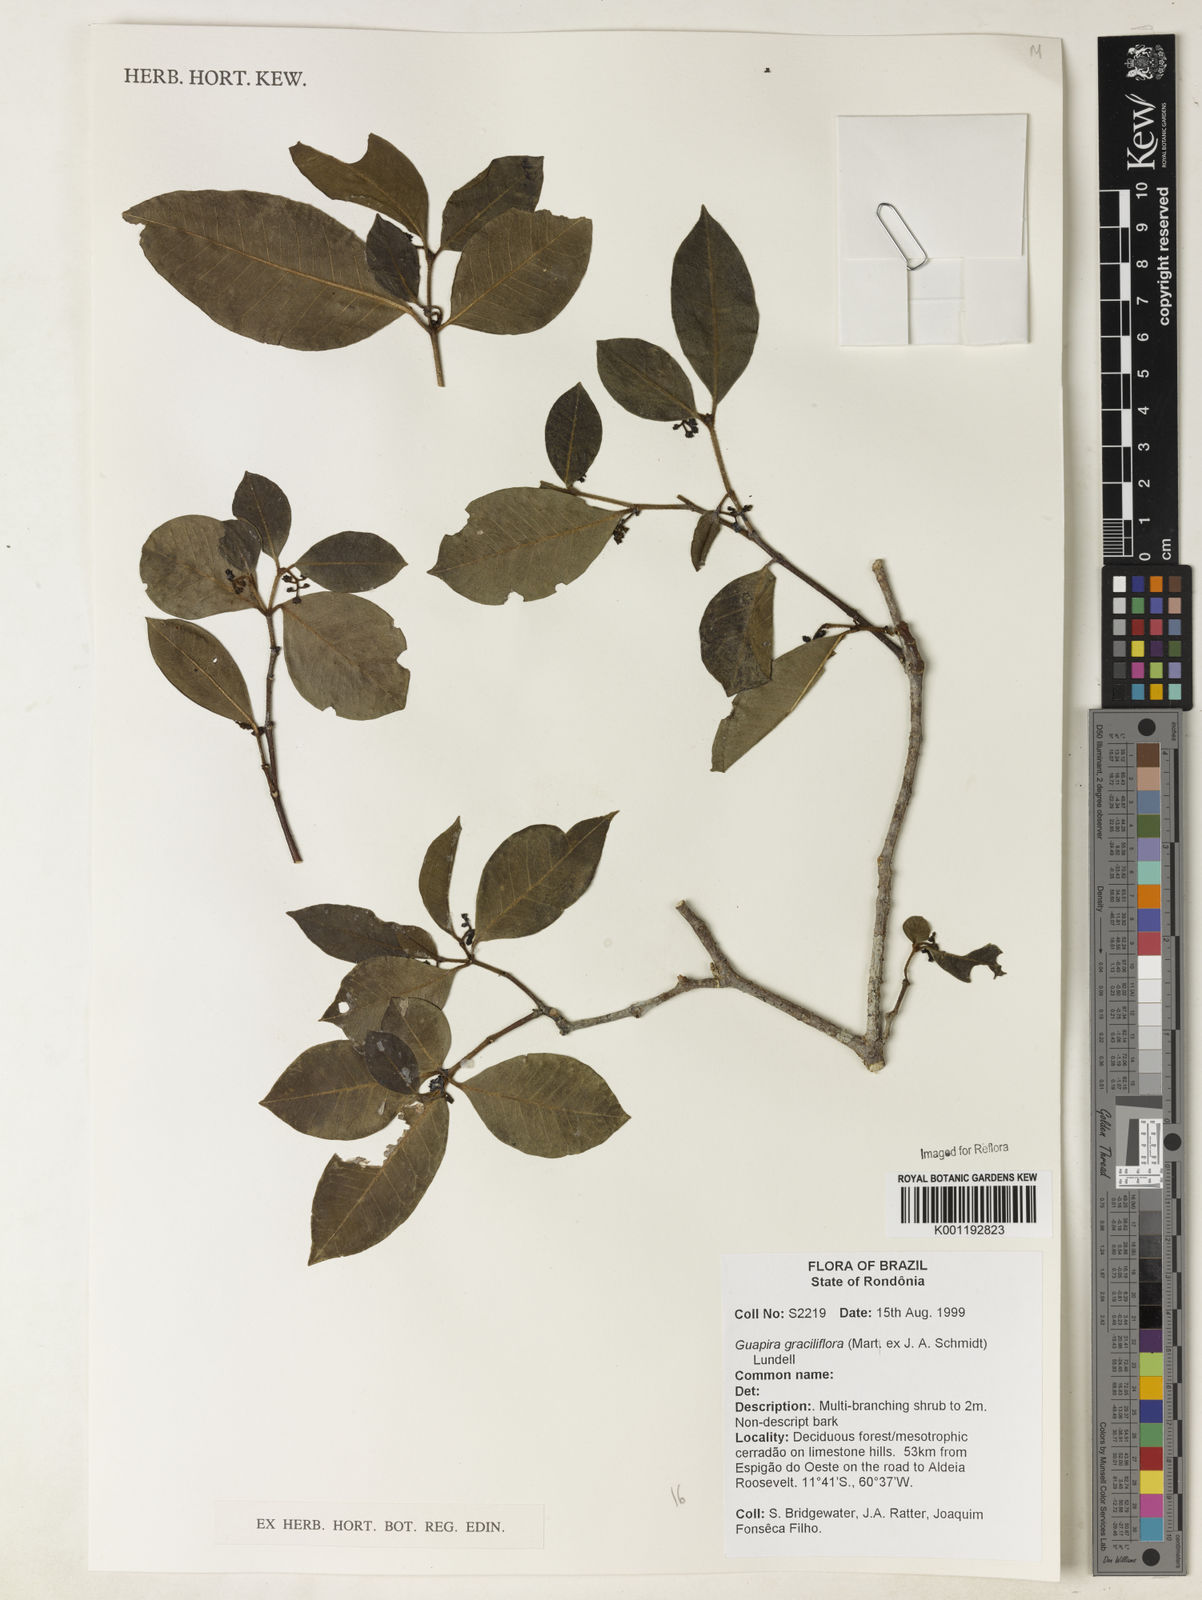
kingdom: Plantae
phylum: Tracheophyta
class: Magnoliopsida
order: Caryophyllales
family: Nyctaginaceae
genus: Guapira
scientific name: Guapira graciliflora
